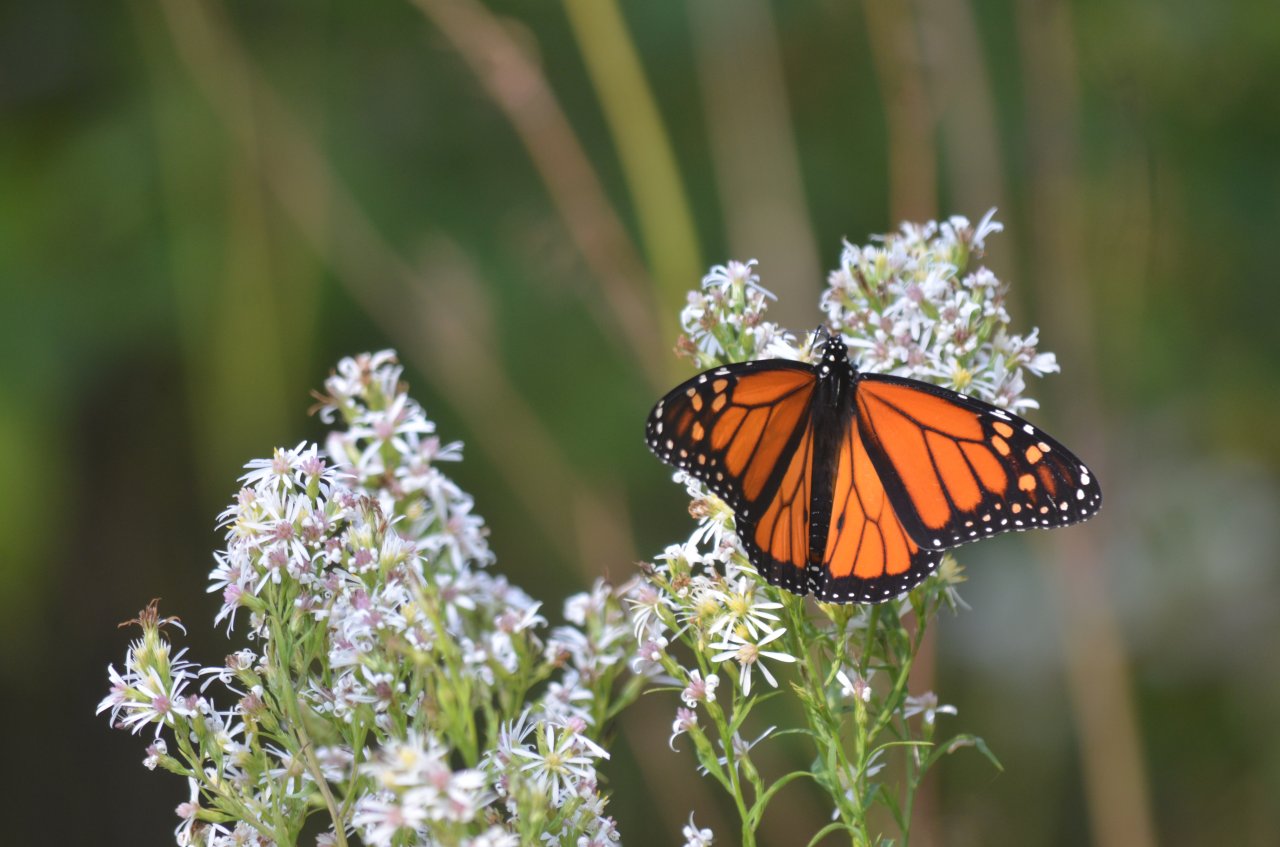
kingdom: Animalia
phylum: Arthropoda
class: Insecta
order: Lepidoptera
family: Nymphalidae
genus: Danaus
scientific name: Danaus plexippus
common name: Monarch
